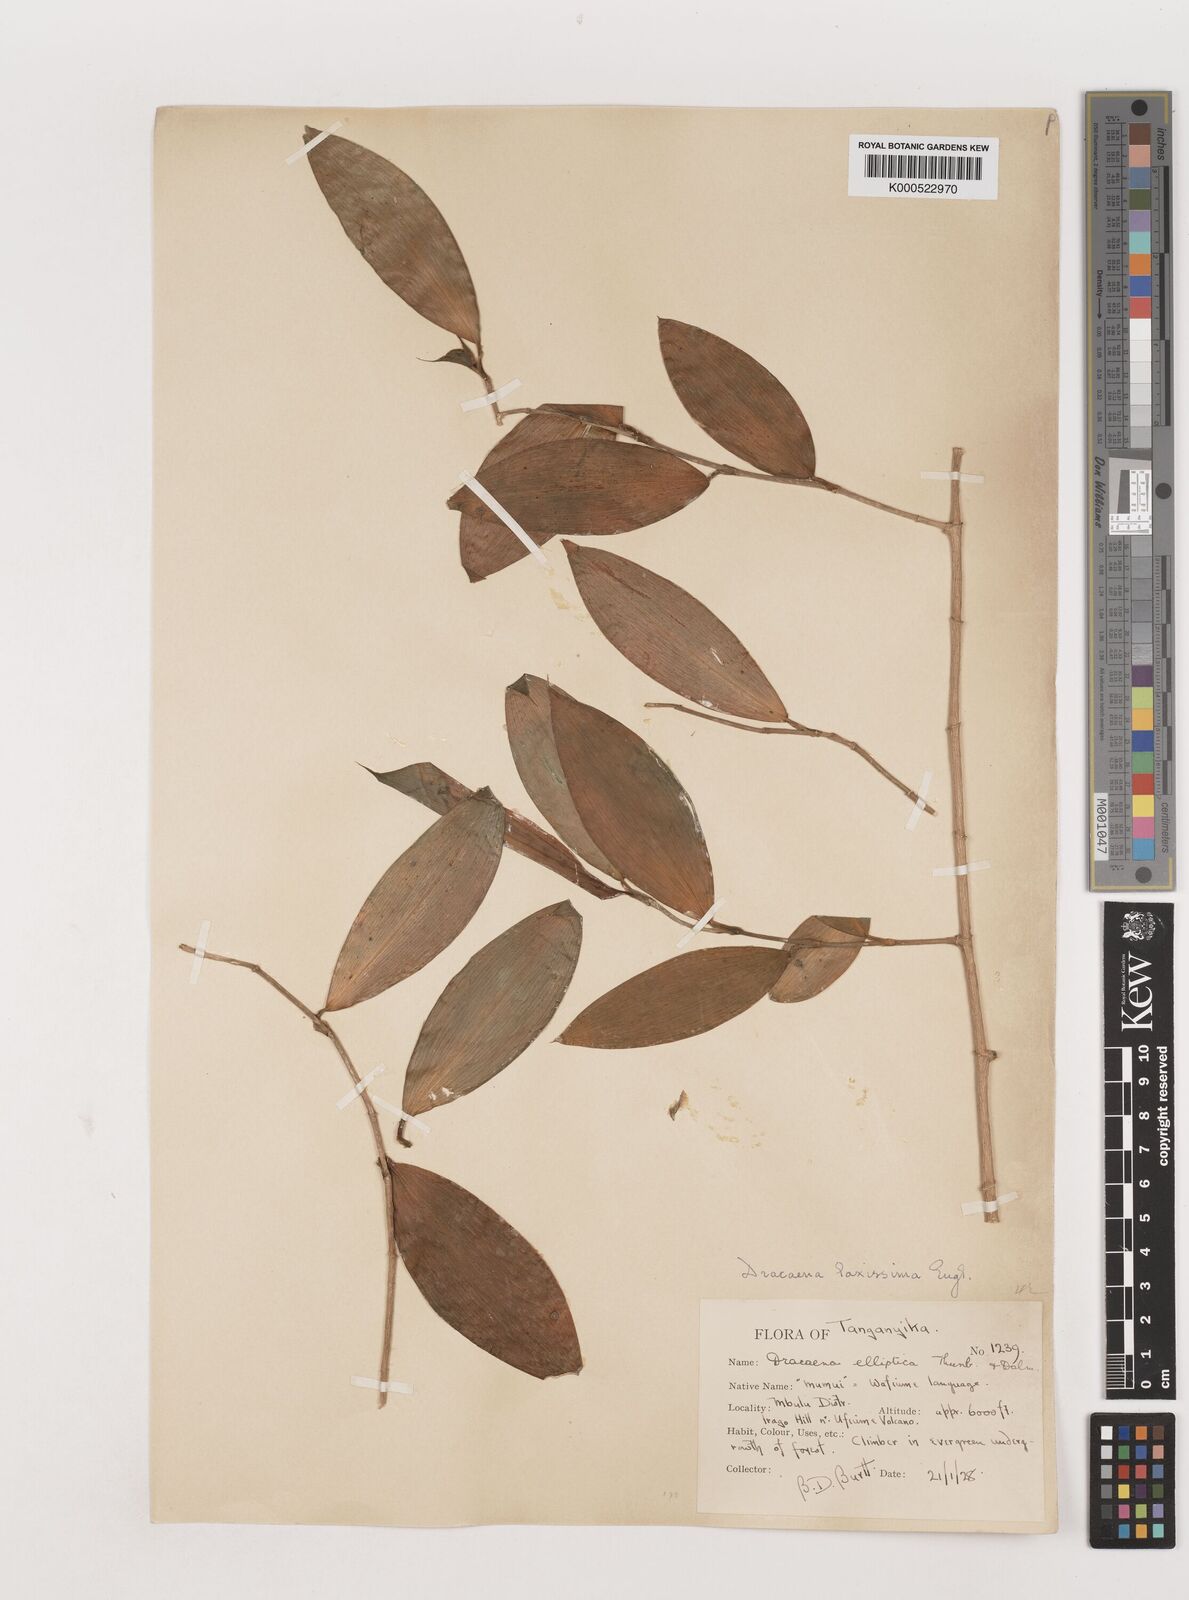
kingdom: Plantae
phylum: Tracheophyta
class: Liliopsida
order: Asparagales
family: Asparagaceae
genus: Dracaena
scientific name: Dracaena laxissima
